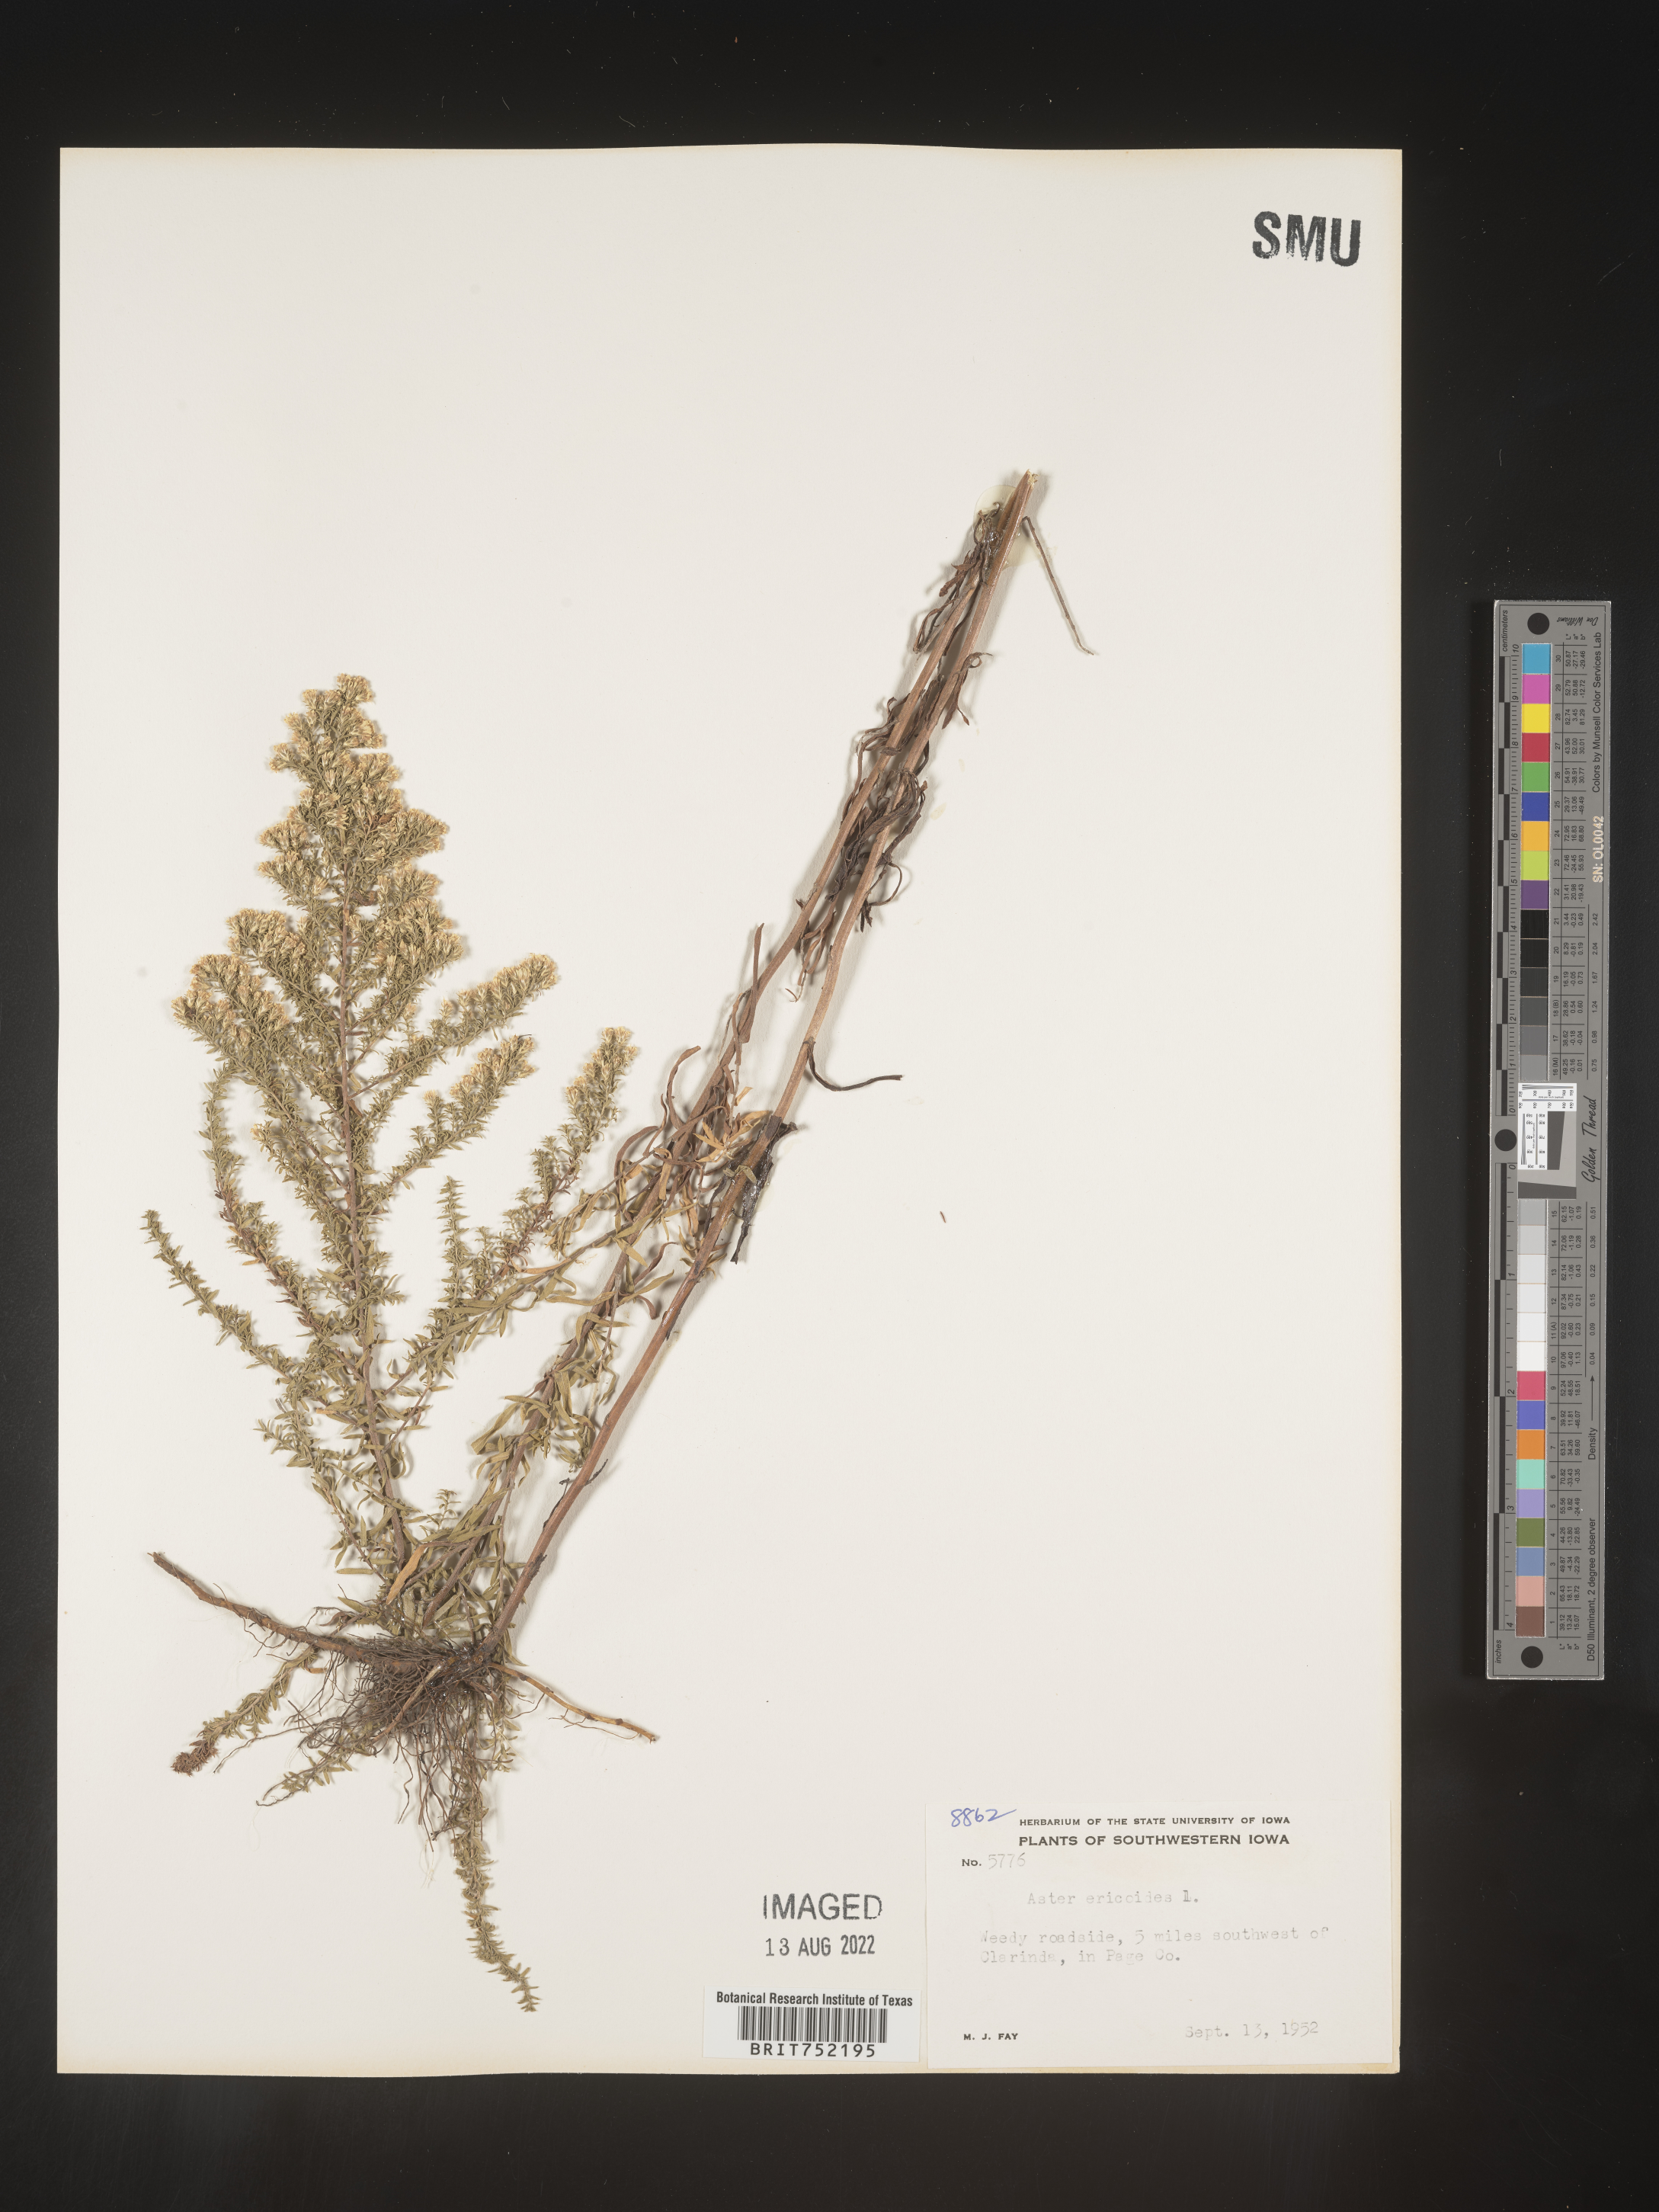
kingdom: Plantae
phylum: Tracheophyta
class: Magnoliopsida
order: Asterales
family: Asteraceae
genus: Symphyotrichum
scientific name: Symphyotrichum ericoides
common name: Heath aster
